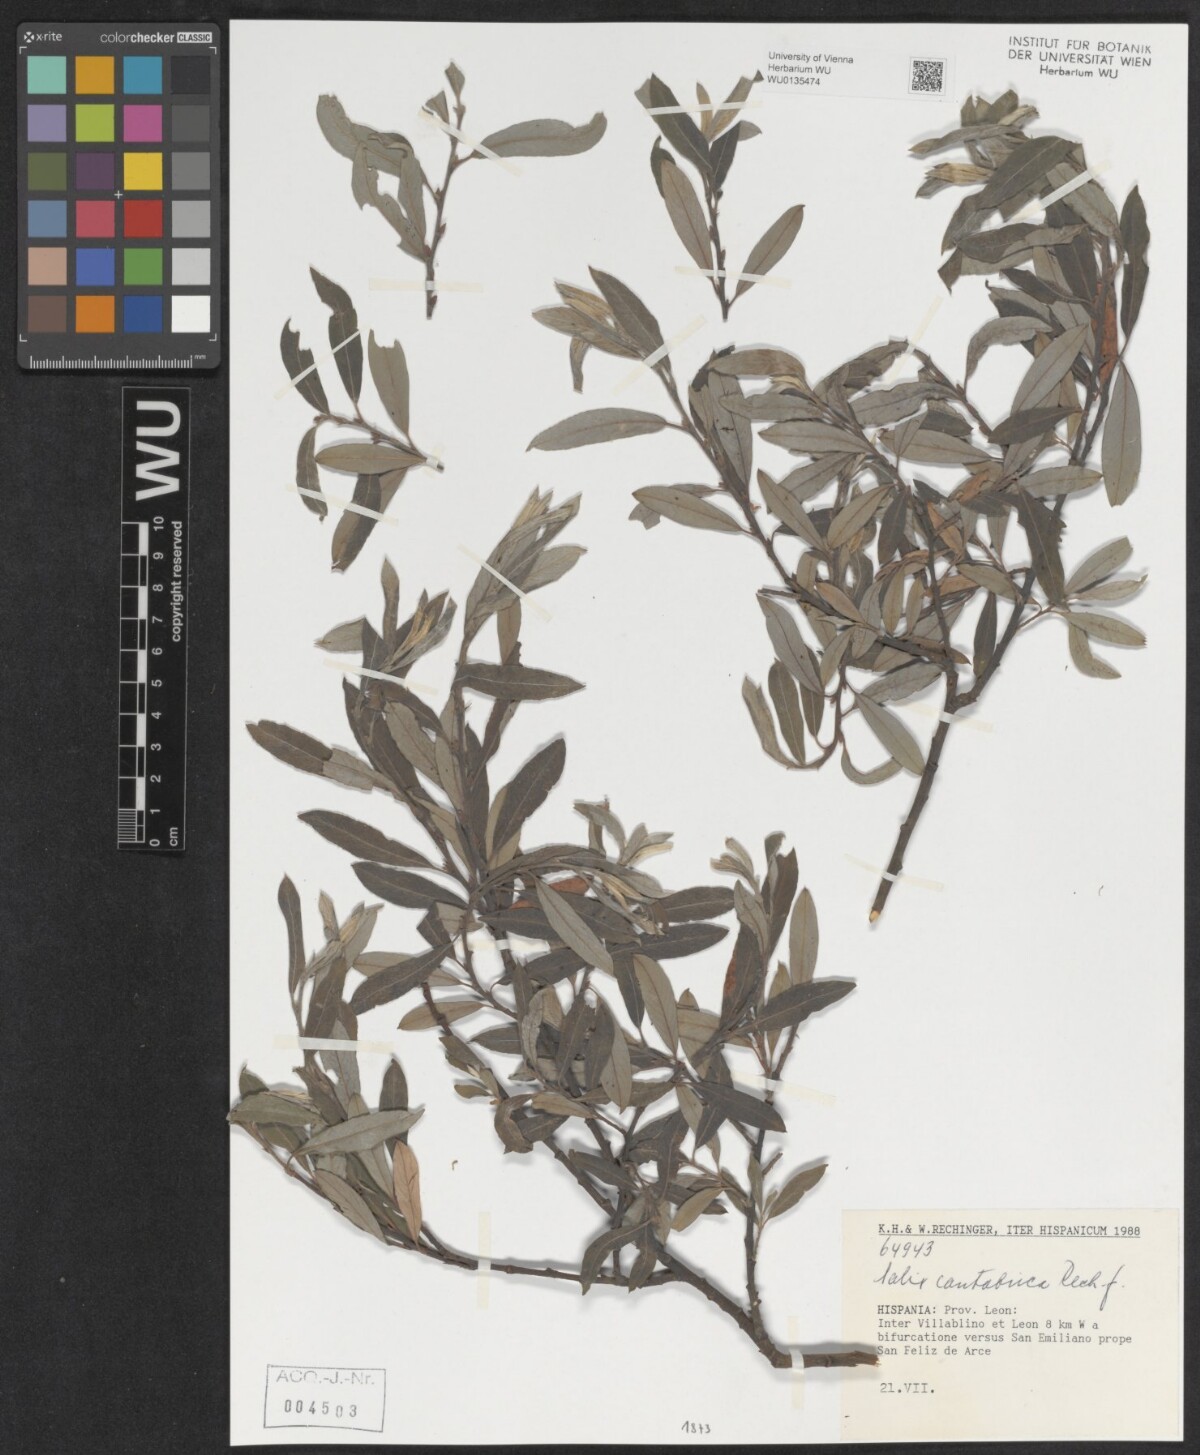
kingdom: Plantae
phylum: Tracheophyta
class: Magnoliopsida
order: Malpighiales
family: Salicaceae
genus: Salix
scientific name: Salix cantabrica
